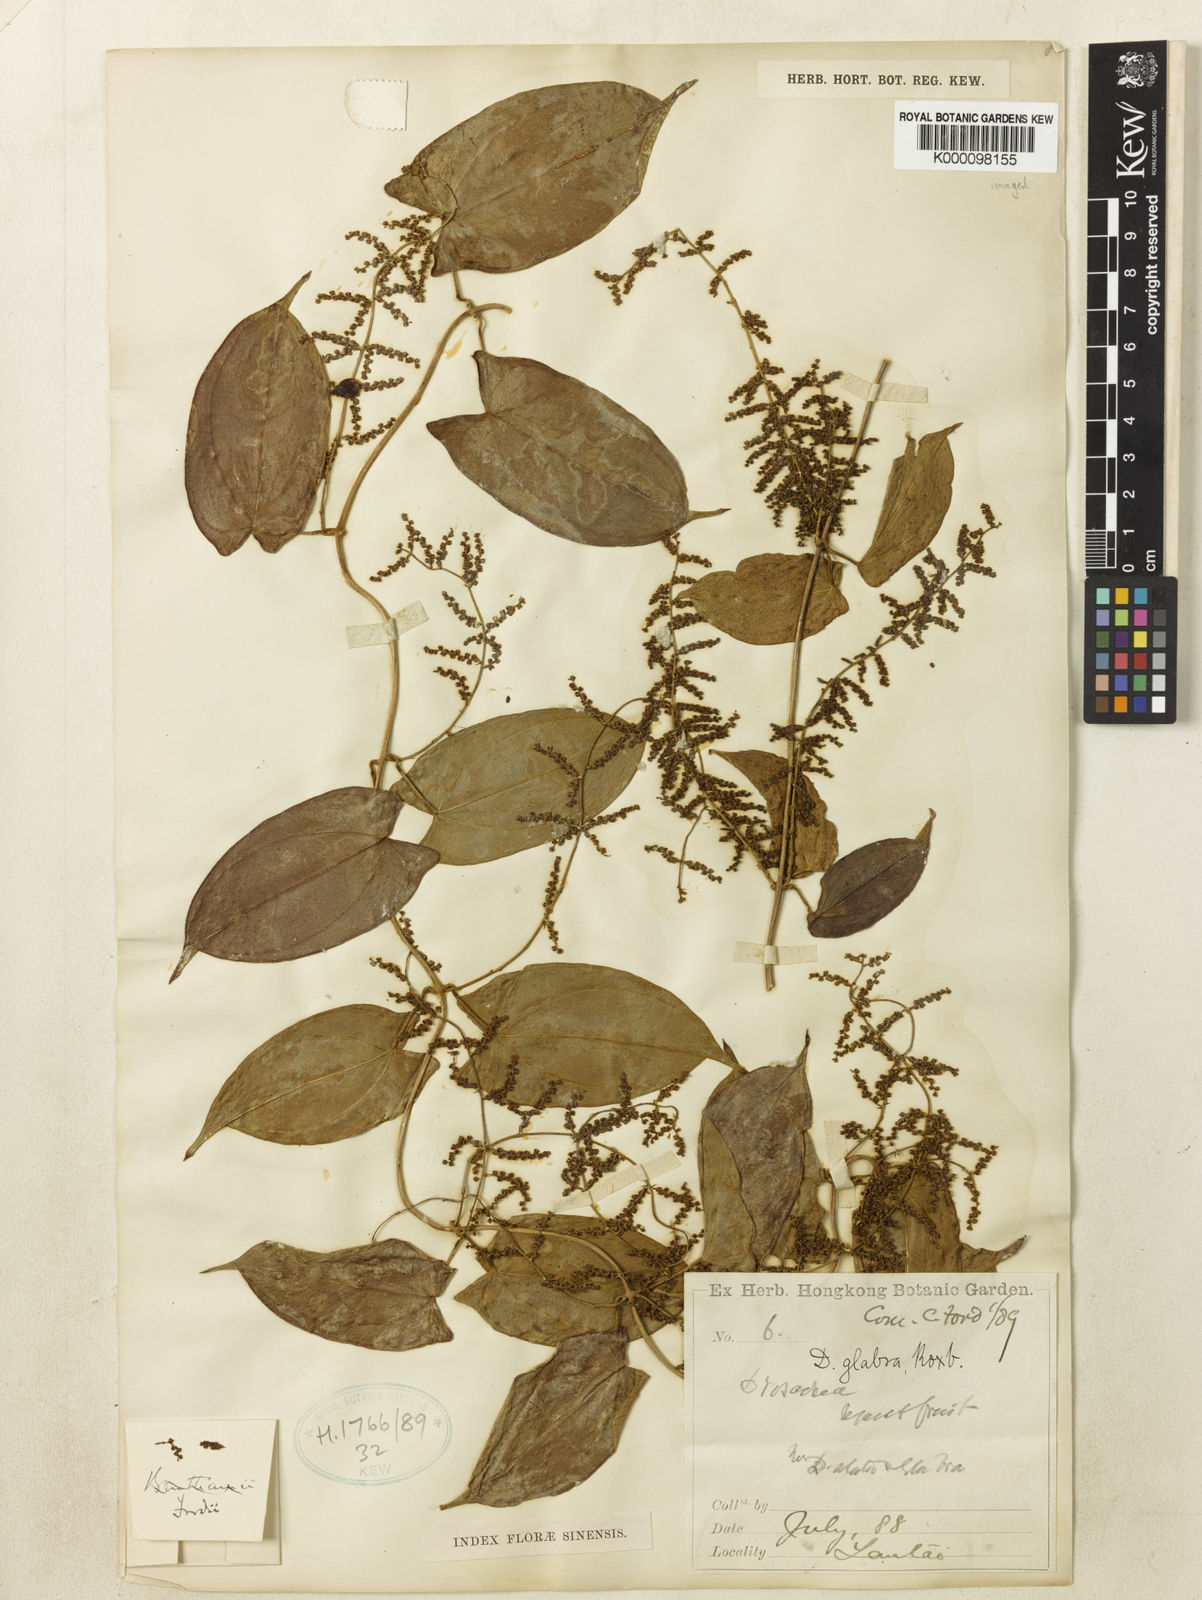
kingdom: Plantae
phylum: Tracheophyta
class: Liliopsida
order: Dioscoreales
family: Dioscoreaceae
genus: Dioscorea
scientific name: Dioscorea fordii
